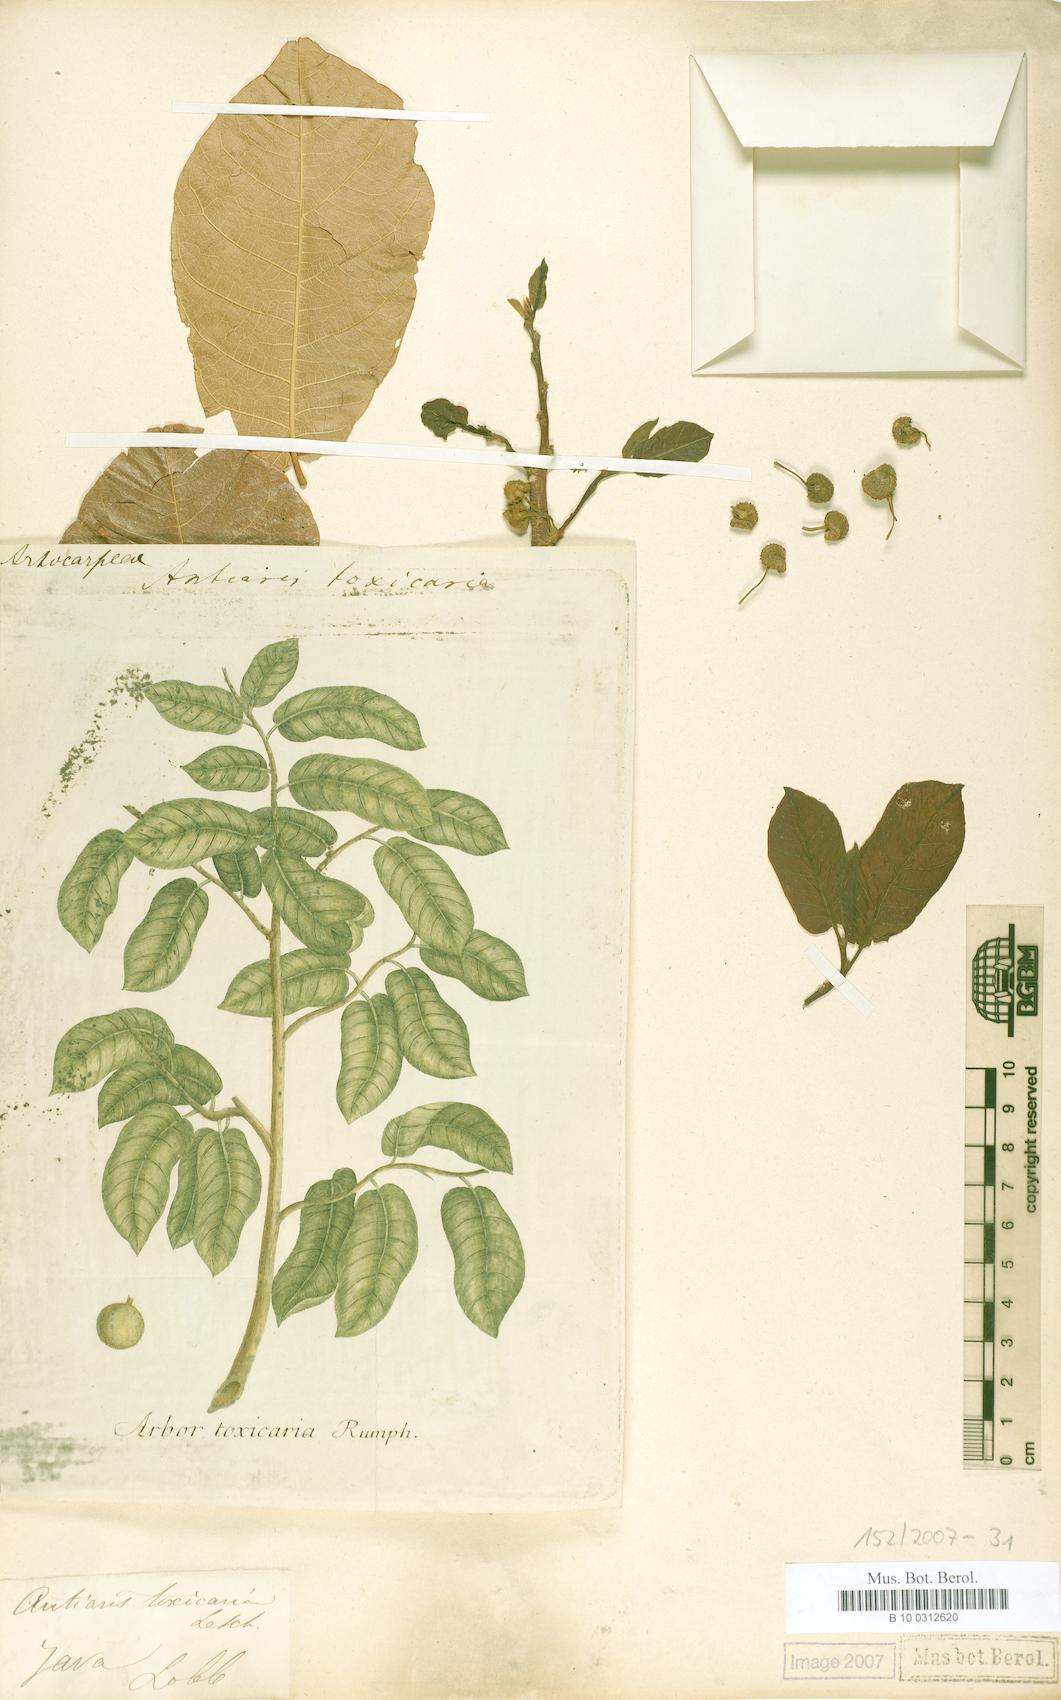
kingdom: Plantae
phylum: Tracheophyta
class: Magnoliopsida
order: Rosales
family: Moraceae
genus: Antiaris
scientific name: Antiaris toxicaria
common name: Sackingtree
